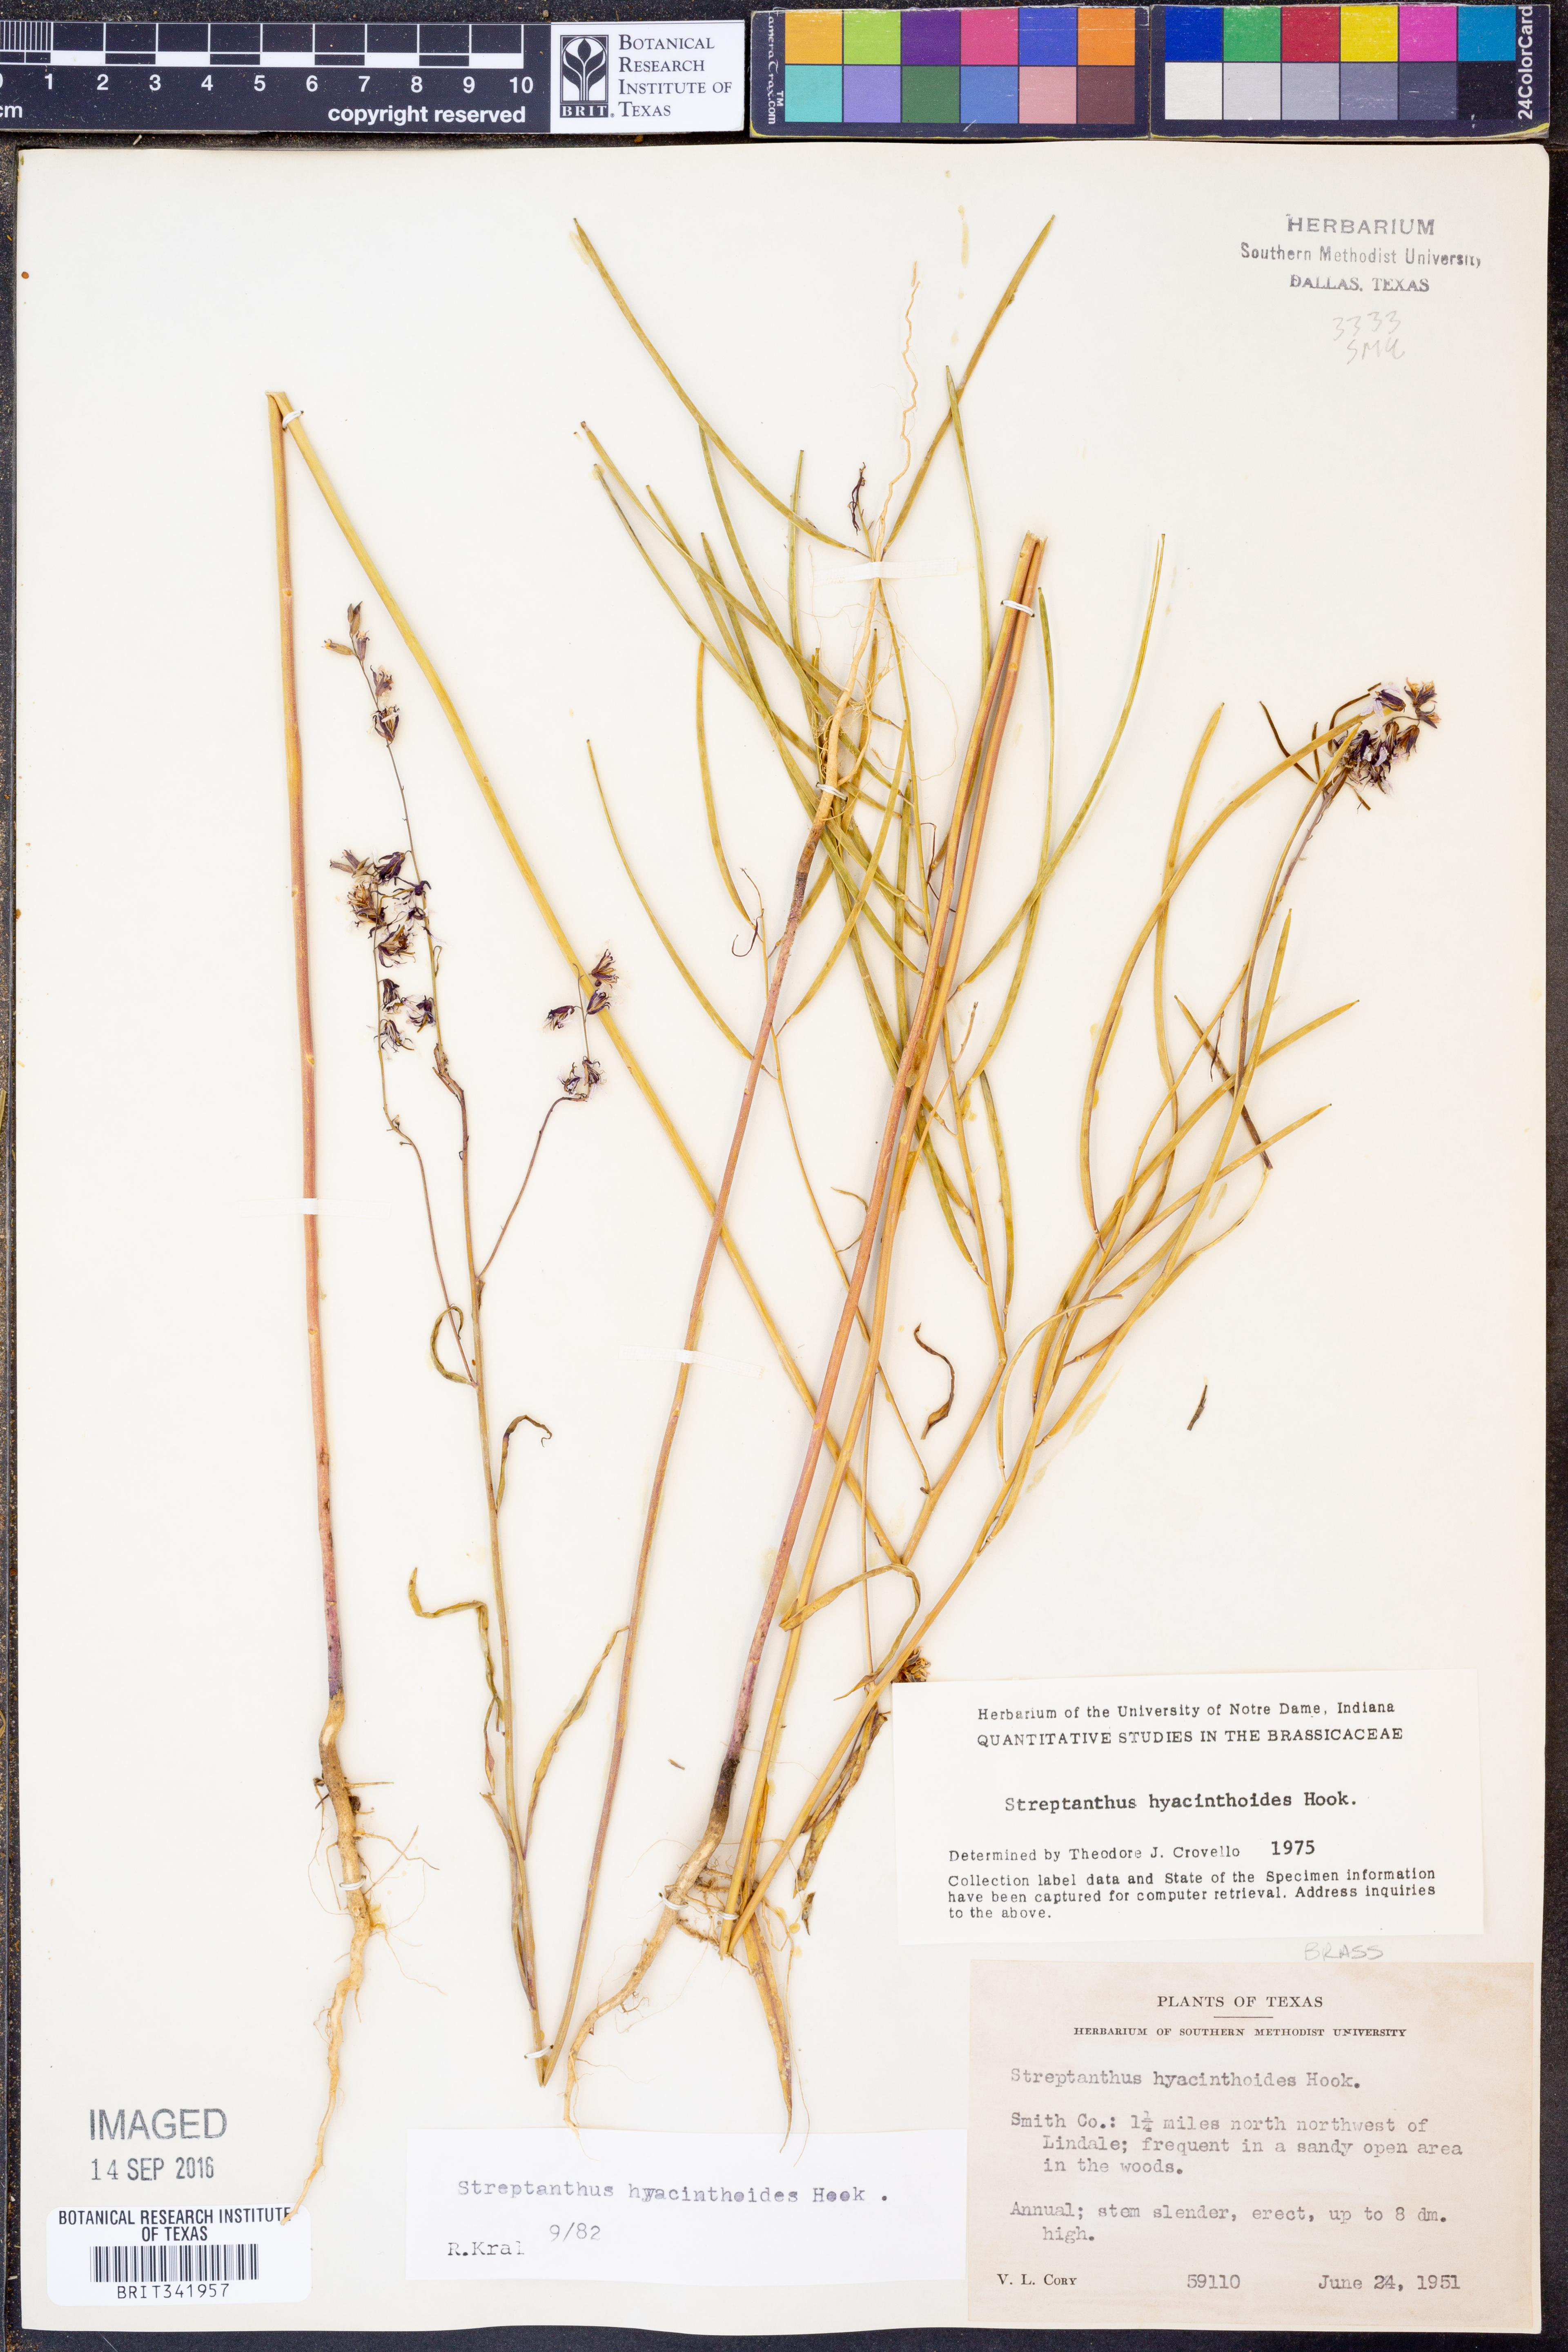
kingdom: Plantae
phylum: Tracheophyta
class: Magnoliopsida
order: Brassicales
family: Brassicaceae
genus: Streptanthus
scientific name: Streptanthus hyacinthoides
